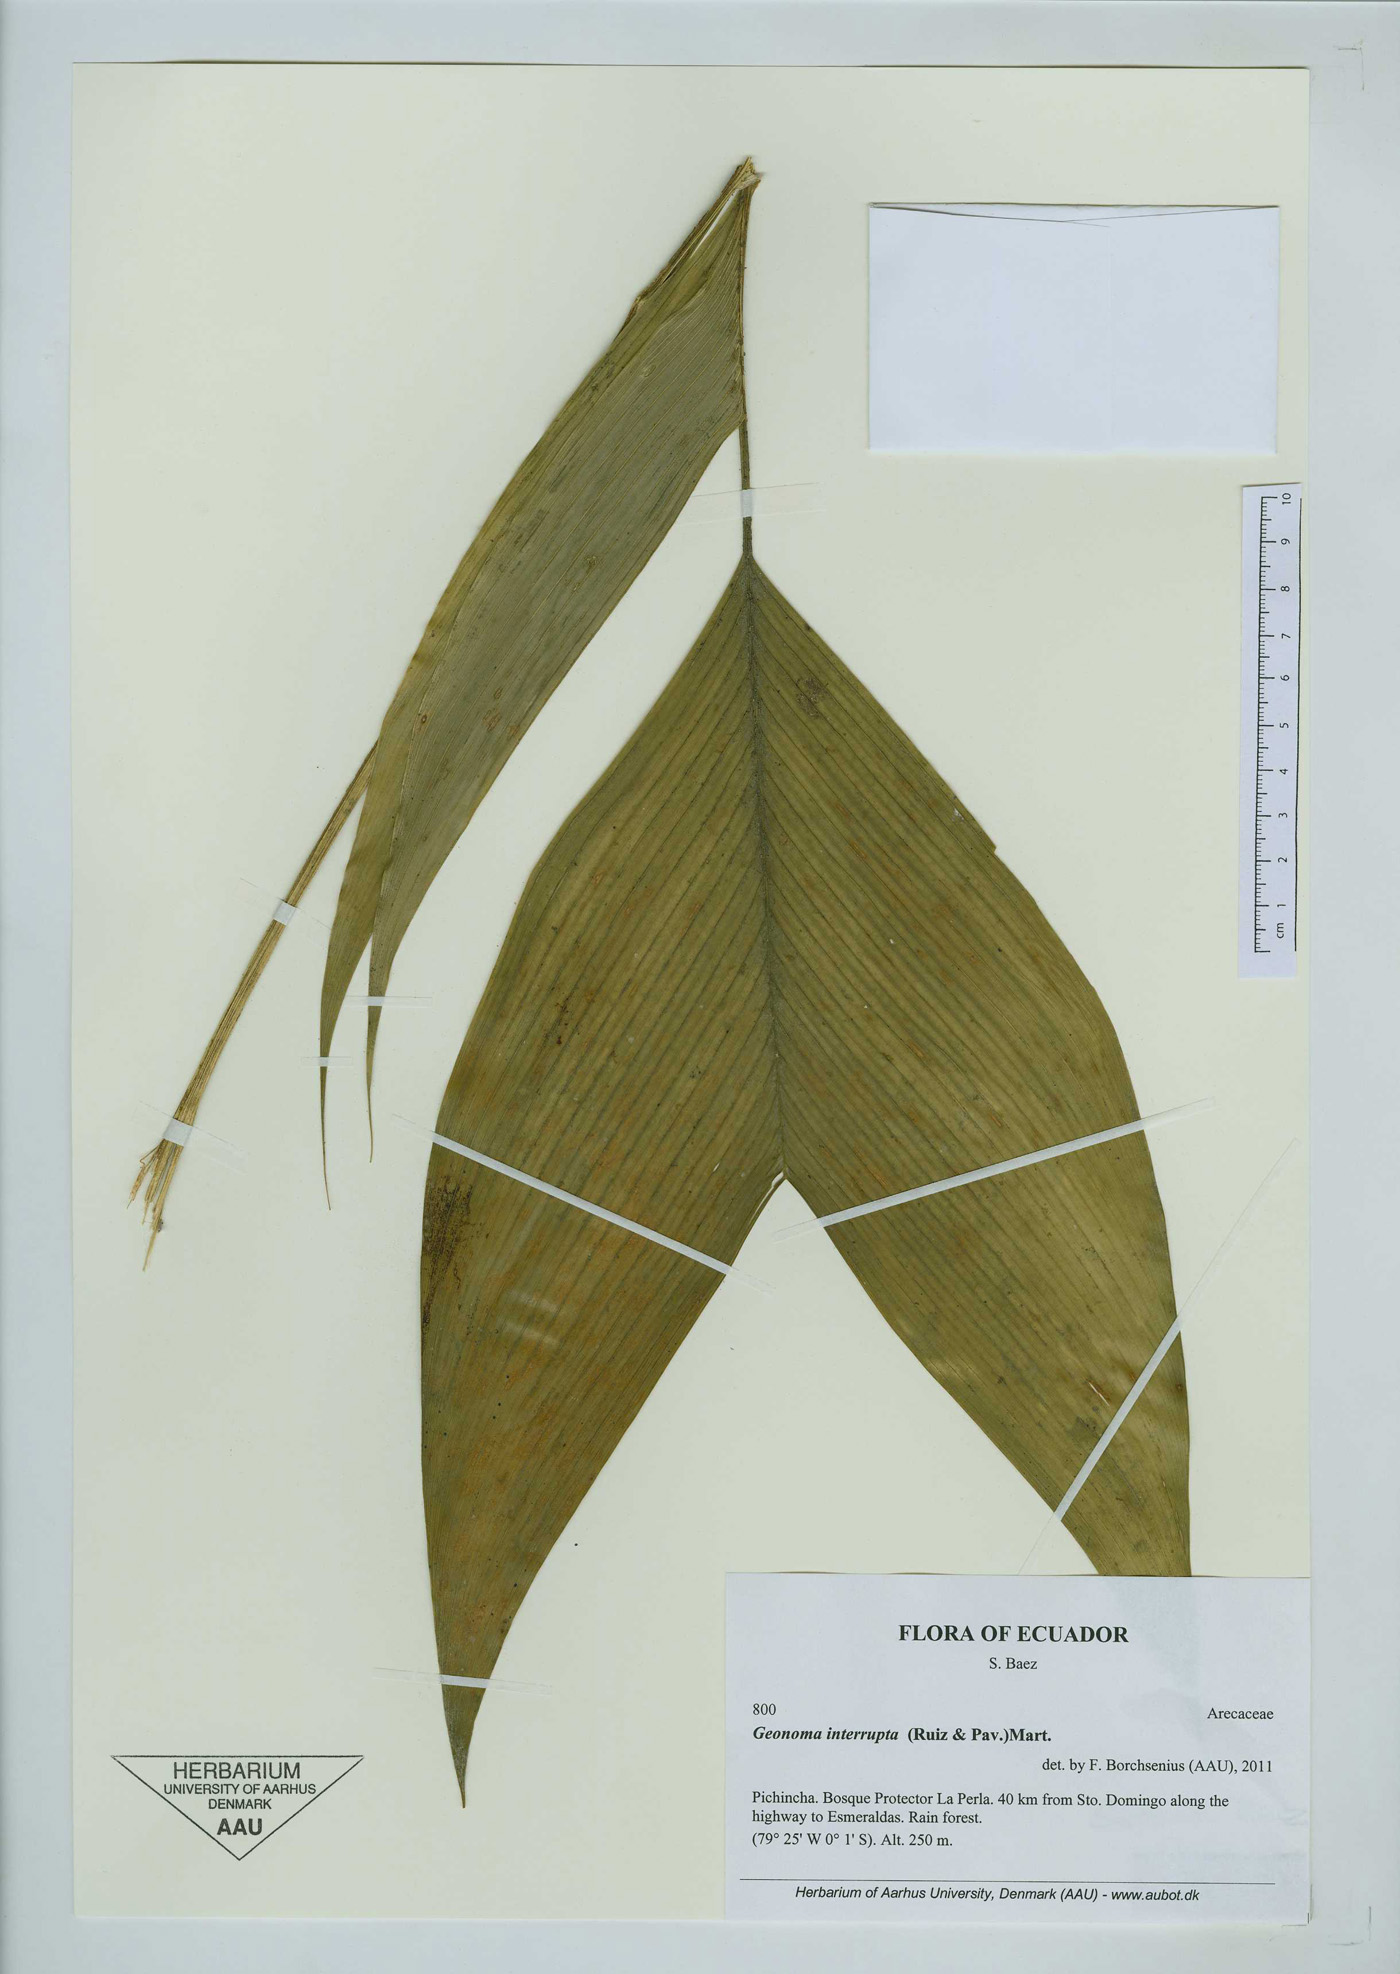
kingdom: Plantae
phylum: Tracheophyta
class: Liliopsida
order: Arecales
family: Arecaceae
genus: Geonoma
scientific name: Geonoma interrupta
